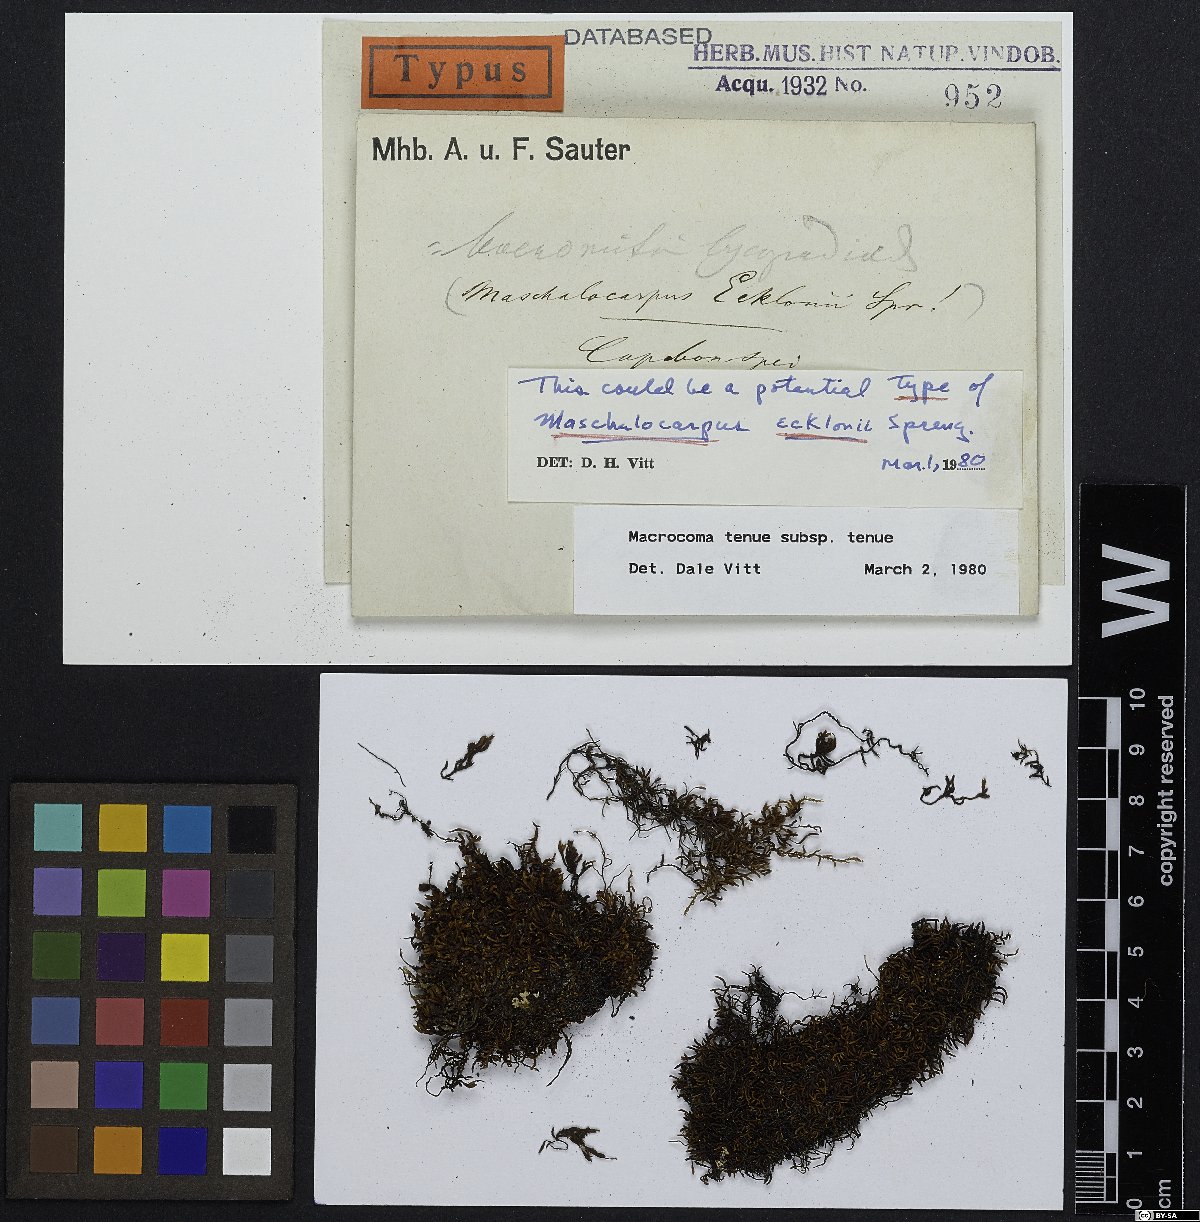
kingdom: Plantae
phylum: Bryophyta
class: Bryopsida
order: Orthotrichales
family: Orthotrichaceae
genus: Macrocoma
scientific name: Macrocoma tenuis
